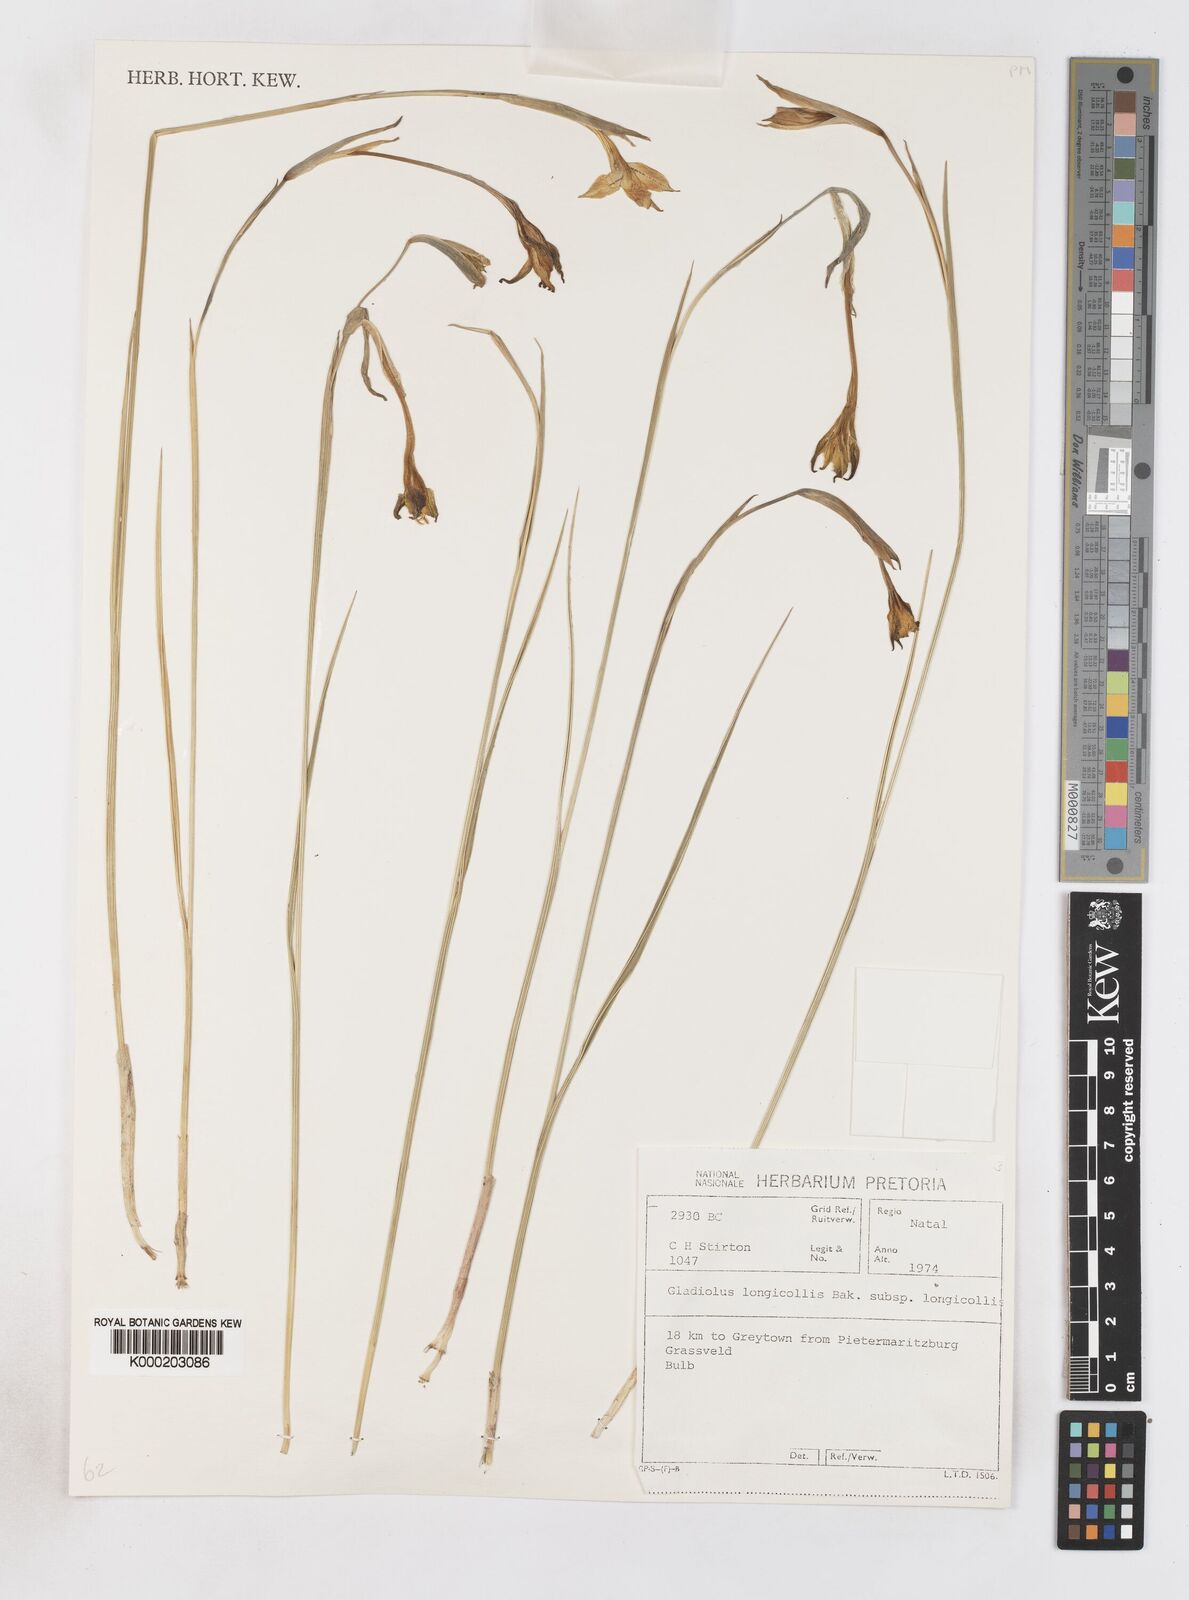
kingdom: Plantae
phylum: Tracheophyta
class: Liliopsida
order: Asparagales
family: Iridaceae
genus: Gladiolus
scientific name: Gladiolus longicollis
